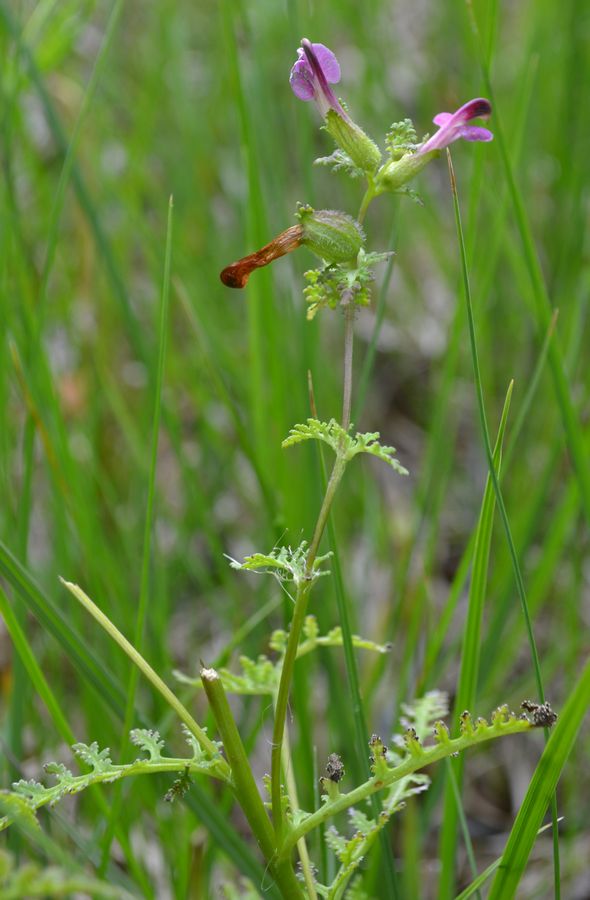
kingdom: Plantae
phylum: Tracheophyta
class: Magnoliopsida
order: Lamiales
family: Orobanchaceae
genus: Pedicularis
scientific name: Pedicularis palustris
